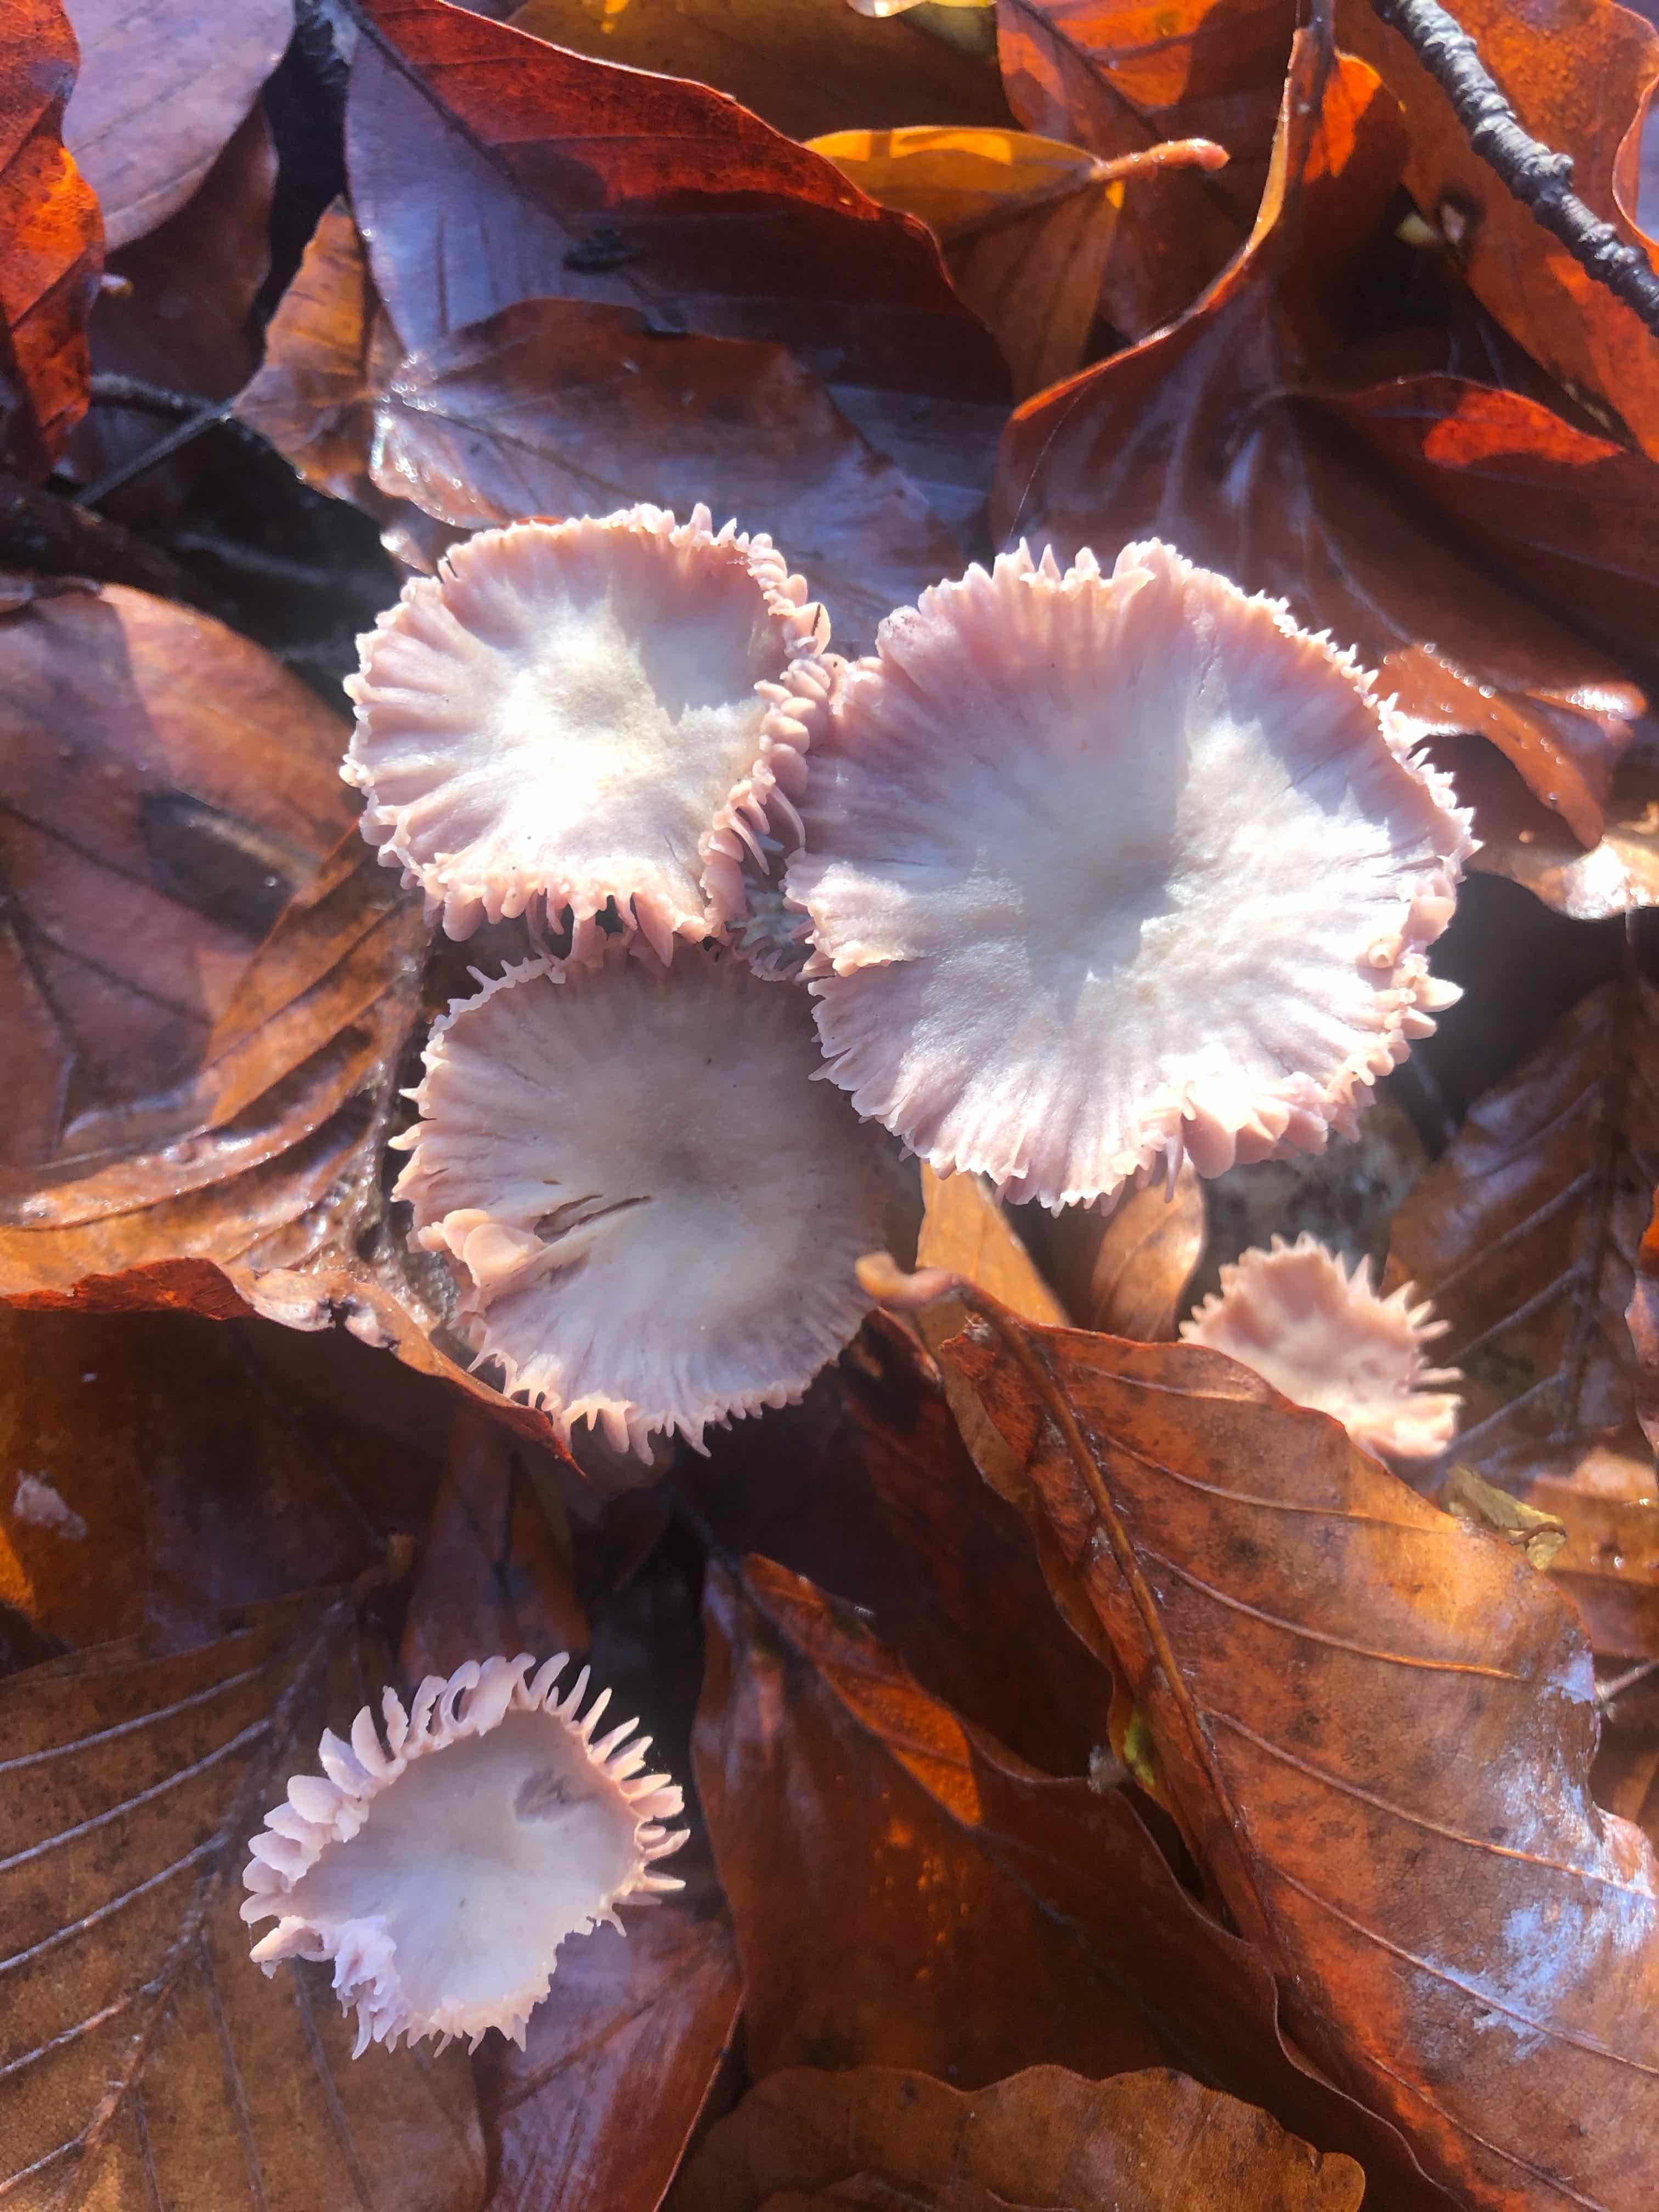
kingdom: Fungi
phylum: Basidiomycota
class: Agaricomycetes
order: Agaricales
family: Hydnangiaceae
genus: Laccaria
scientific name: Laccaria amethystina
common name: violet ametysthat
